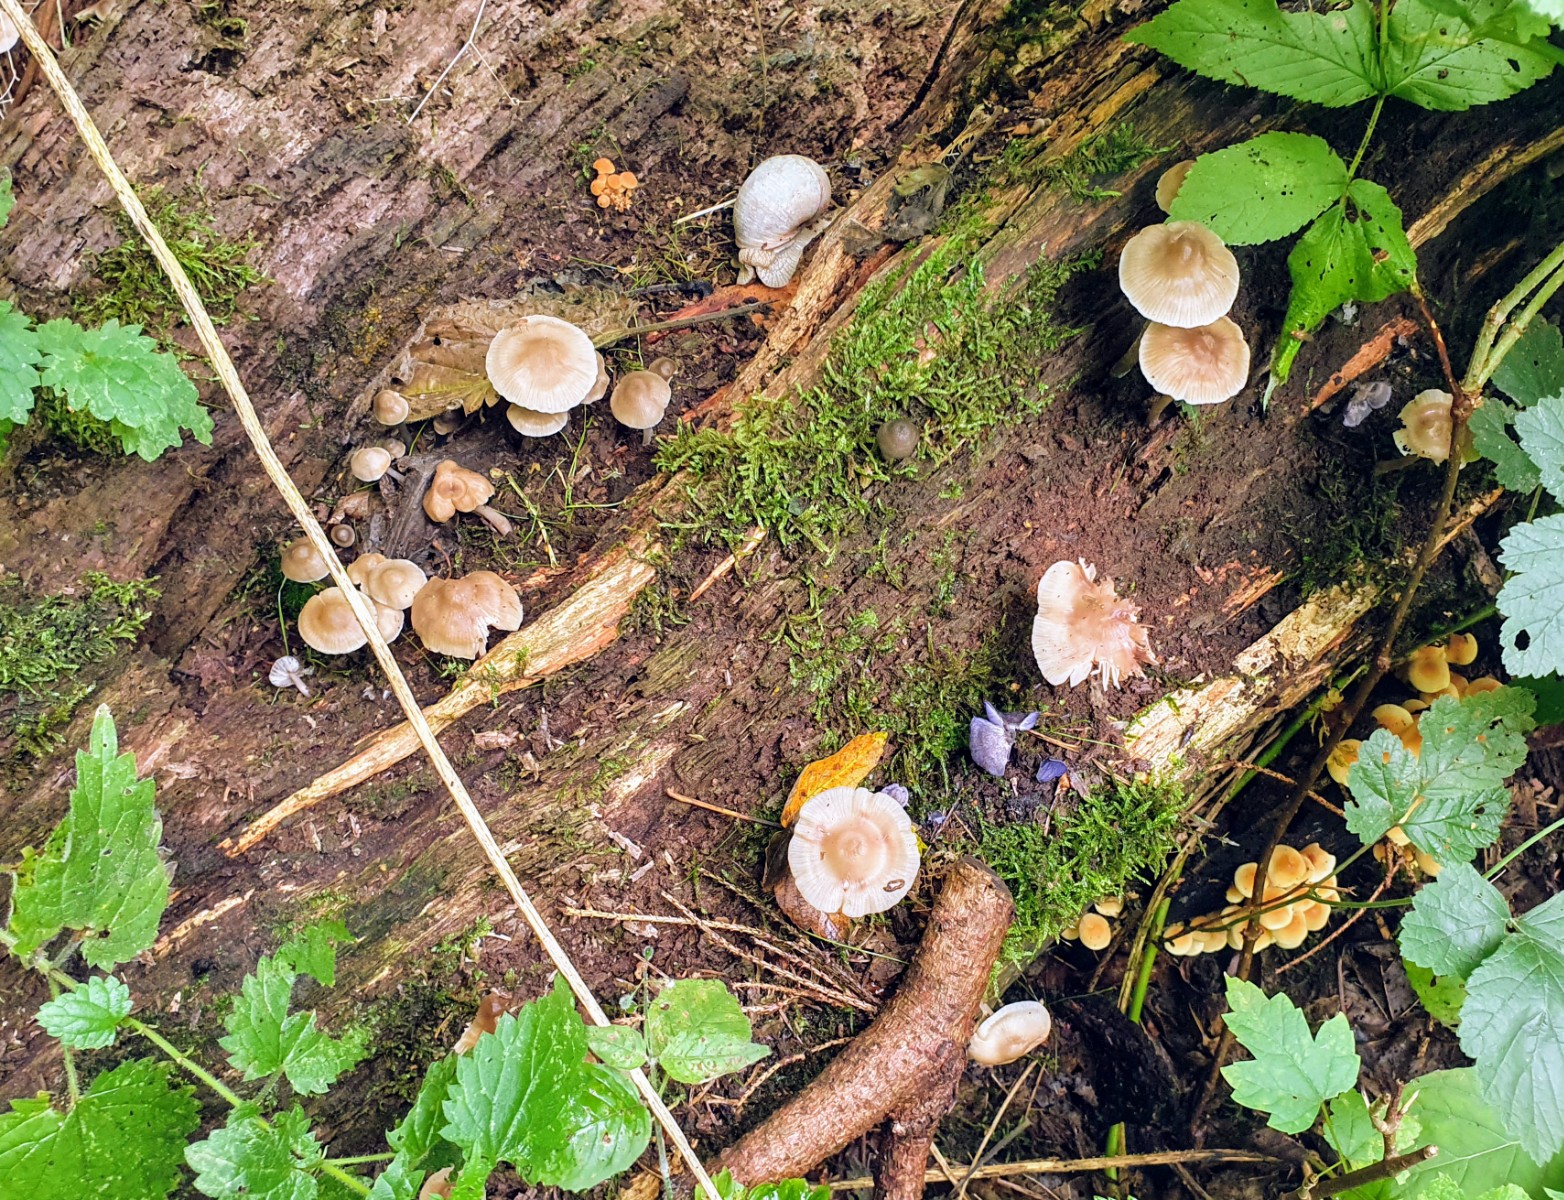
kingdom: Fungi
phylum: Basidiomycota
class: Agaricomycetes
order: Agaricales
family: Mycenaceae
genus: Mycena
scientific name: Mycena galericulata
